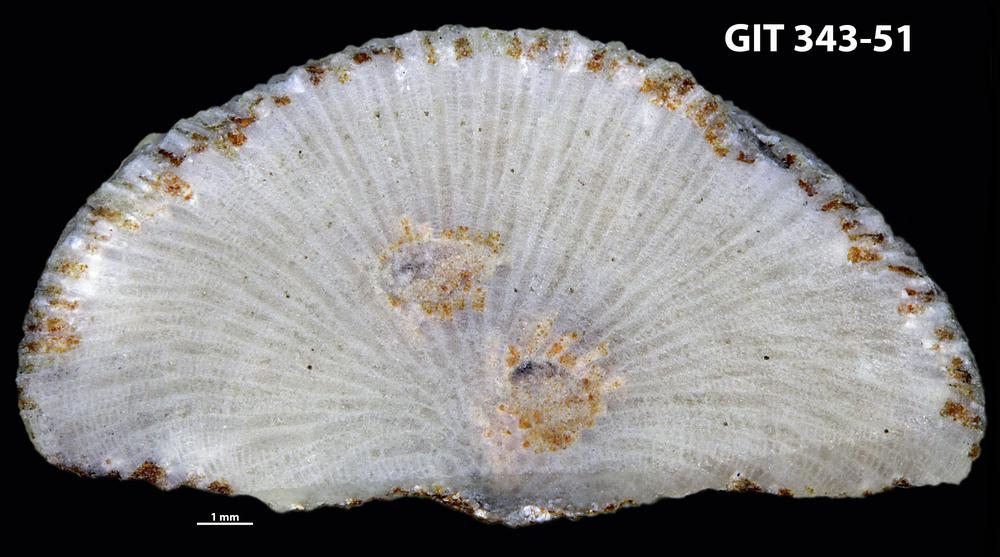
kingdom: Animalia
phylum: Bryozoa
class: Stenolaemata
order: Trepostomatida
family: Monticuliporidae
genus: Mesotrypa
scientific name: Mesotrypa orientalis
